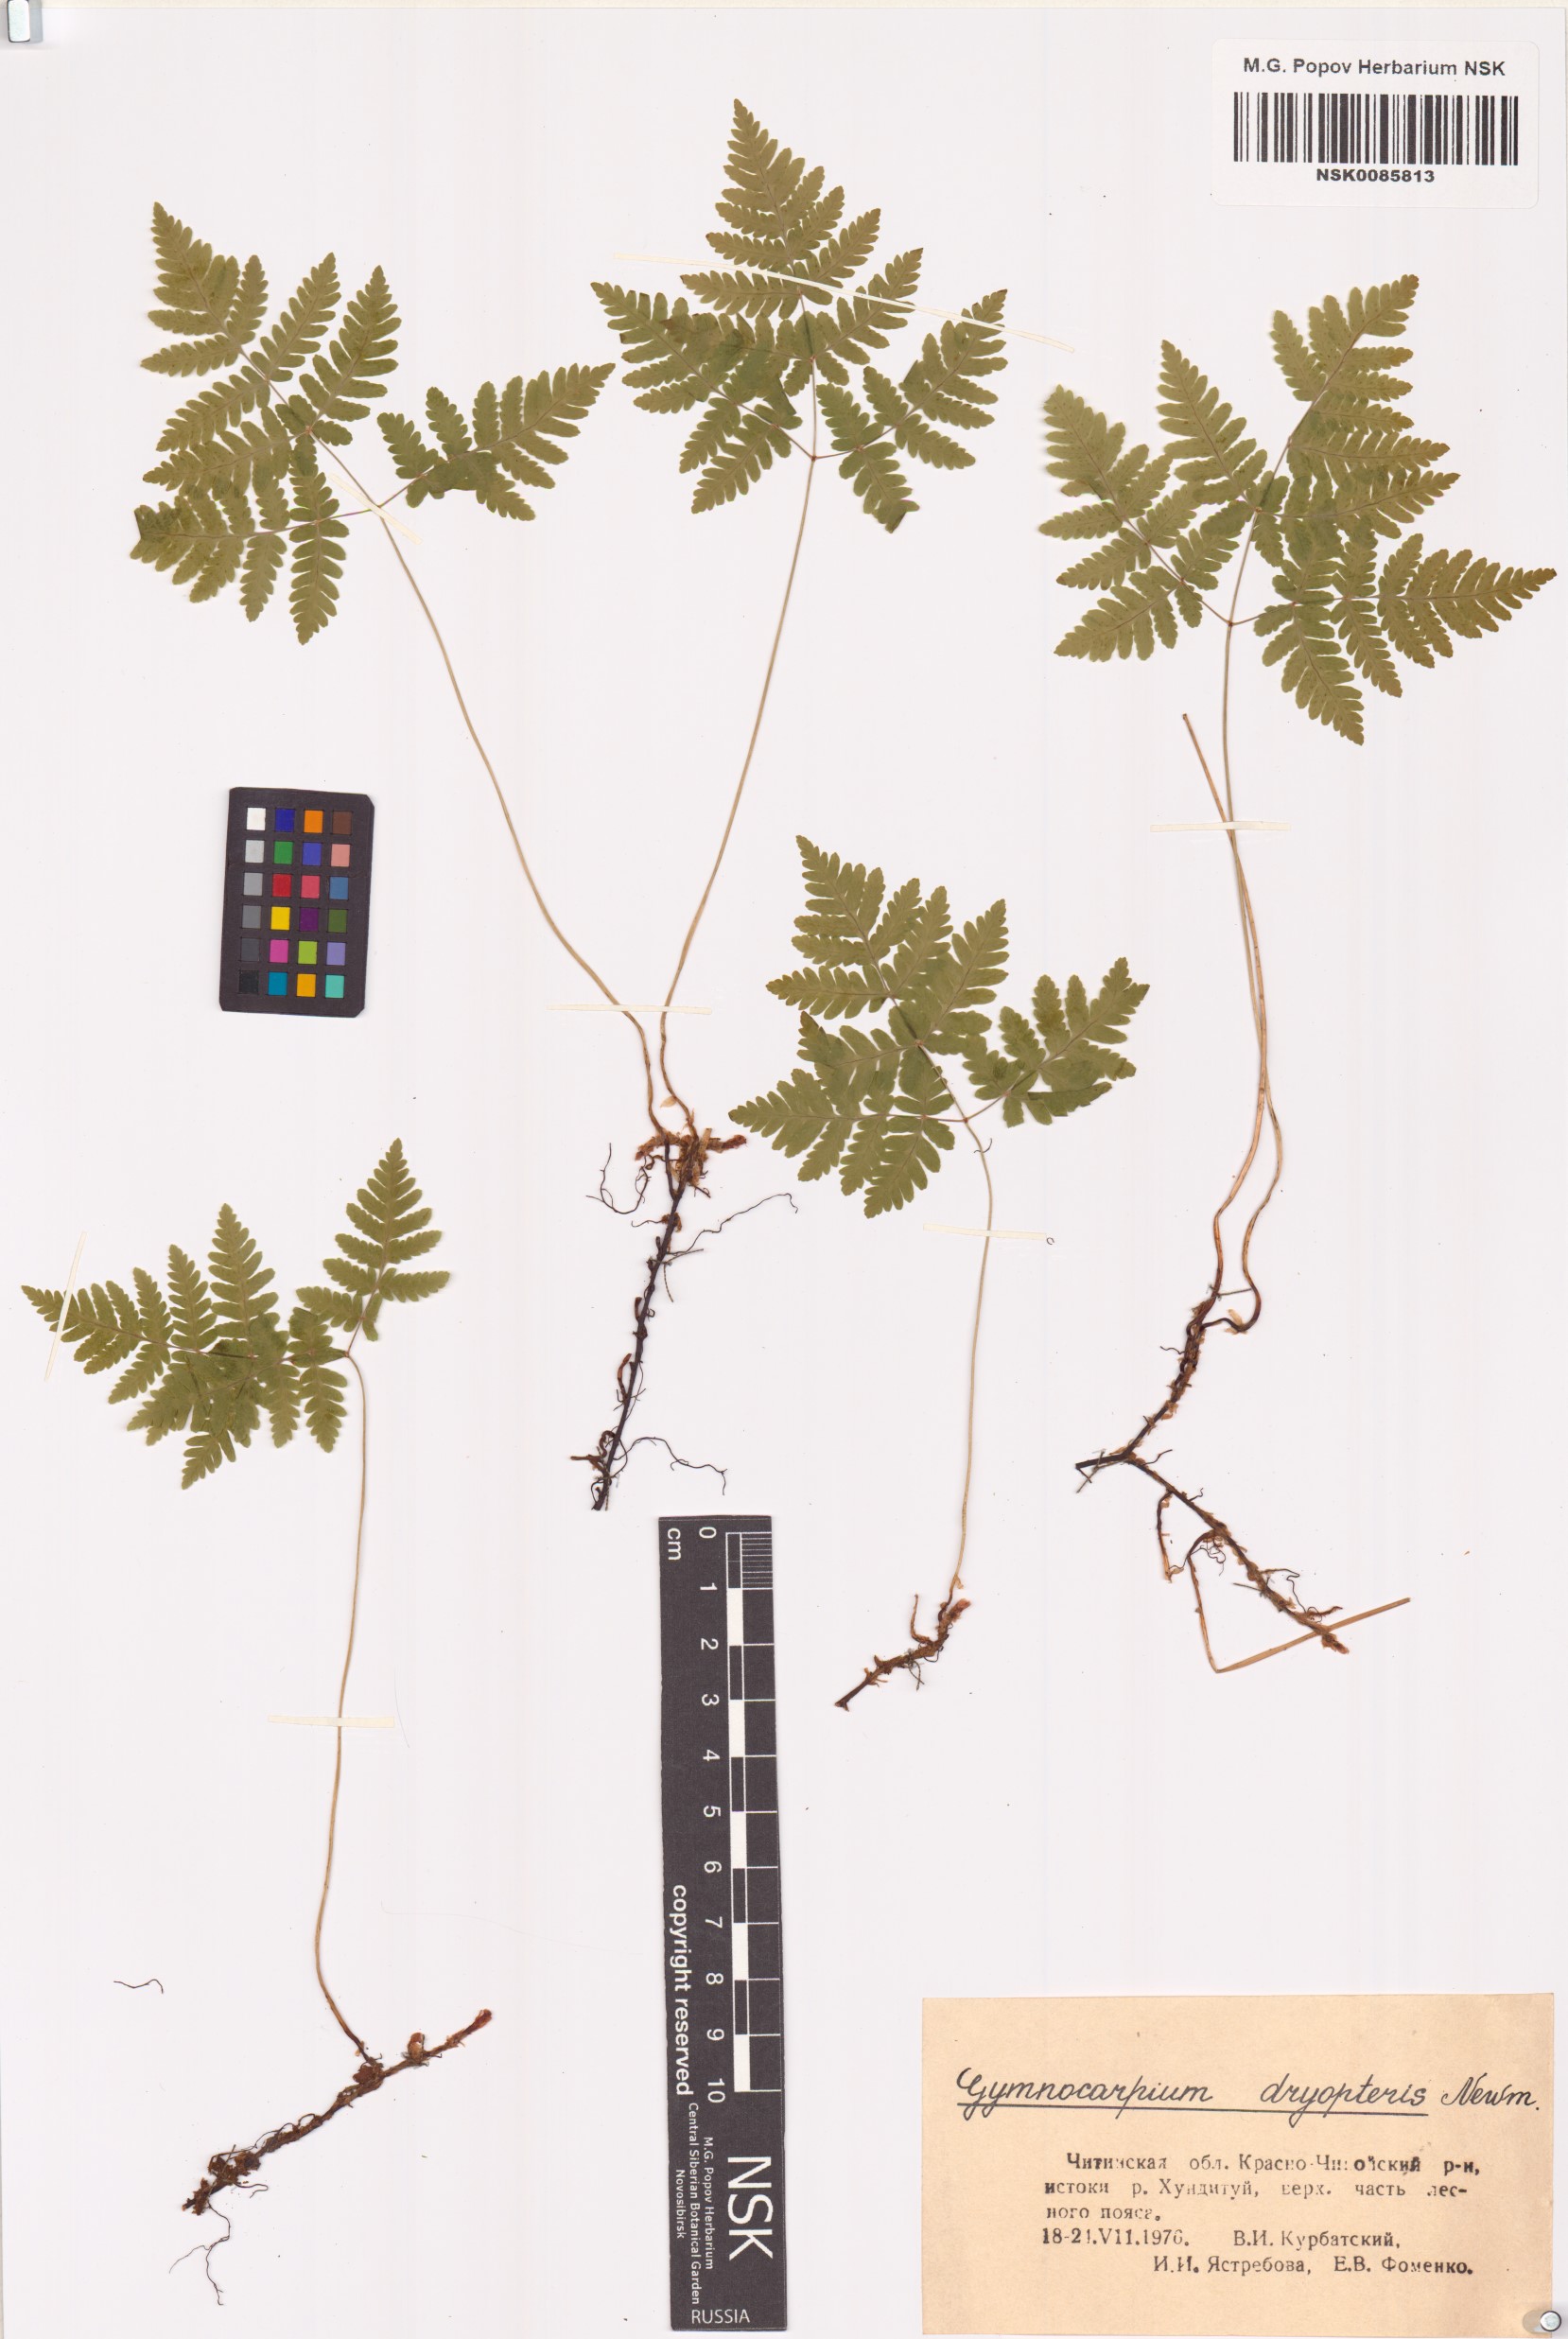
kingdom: Plantae
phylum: Tracheophyta
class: Polypodiopsida
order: Polypodiales
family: Cystopteridaceae
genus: Gymnocarpium
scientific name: Gymnocarpium dryopteris
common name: Oak fern
